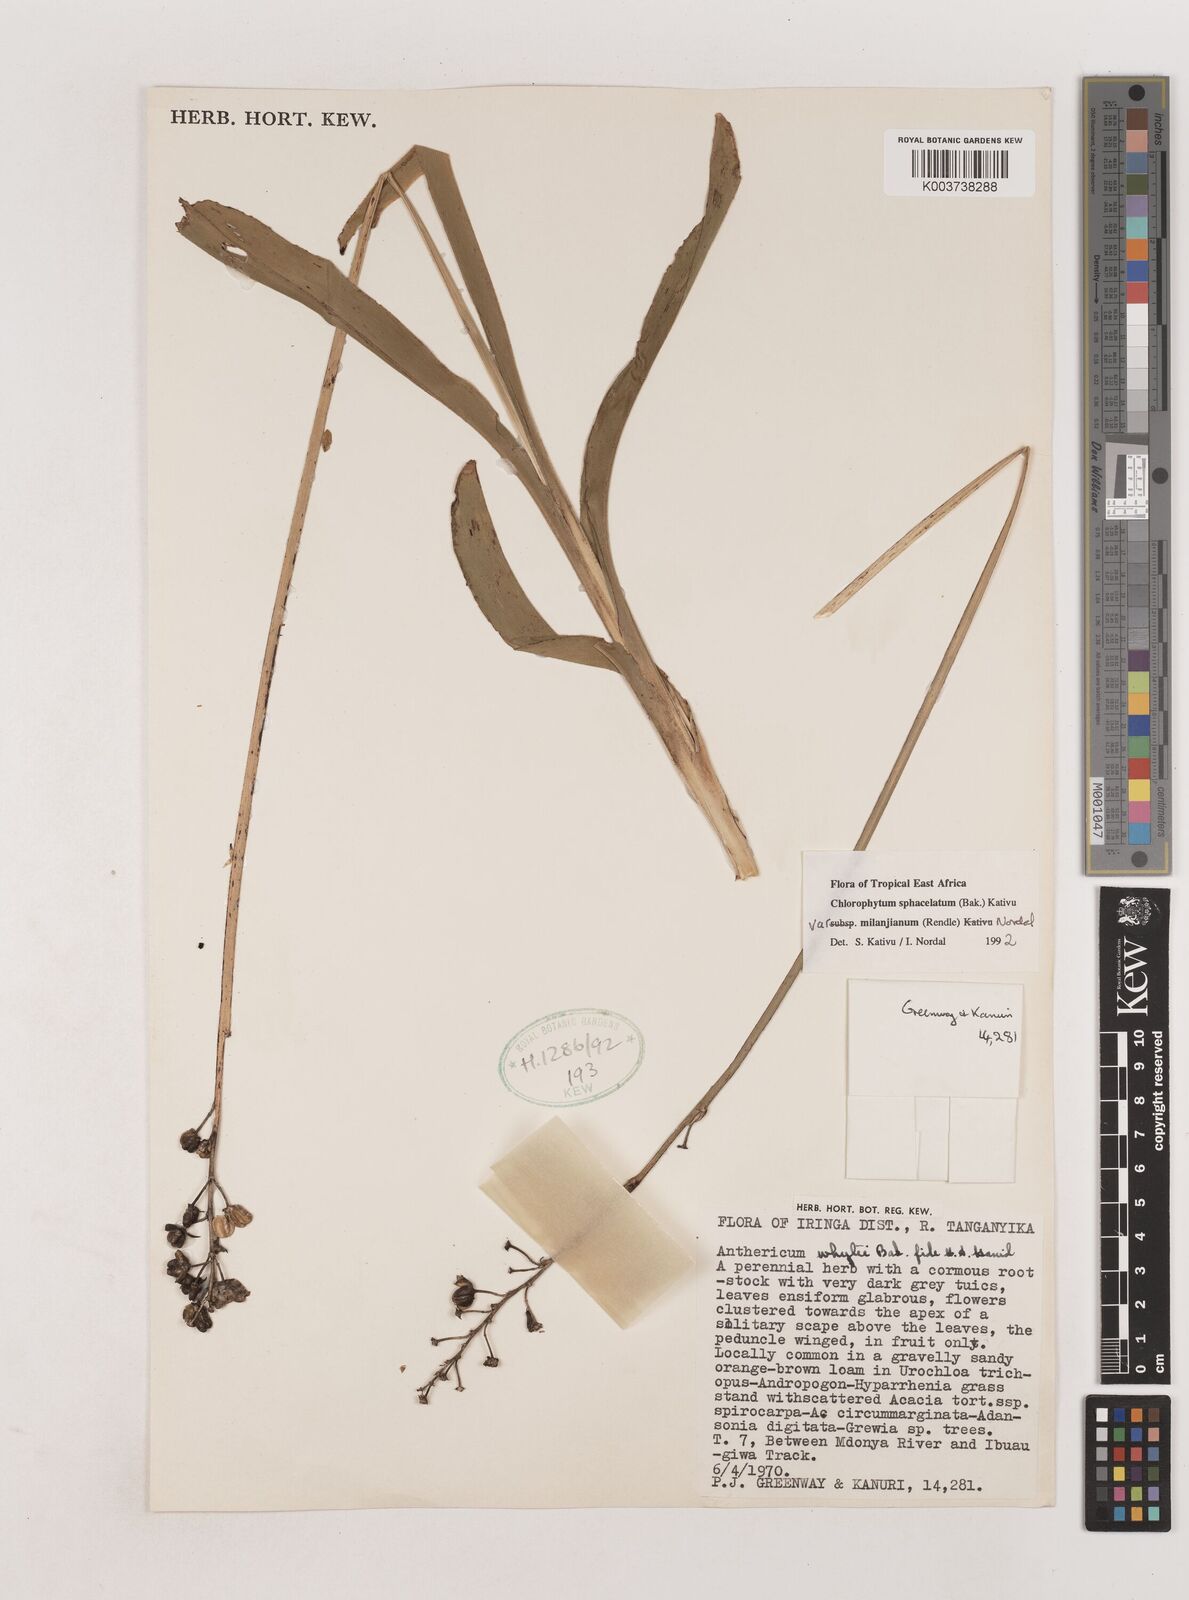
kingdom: Plantae
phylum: Tracheophyta
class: Liliopsida
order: Asparagales
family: Asparagaceae
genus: Chlorophytum
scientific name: Chlorophytum sphacelatum
